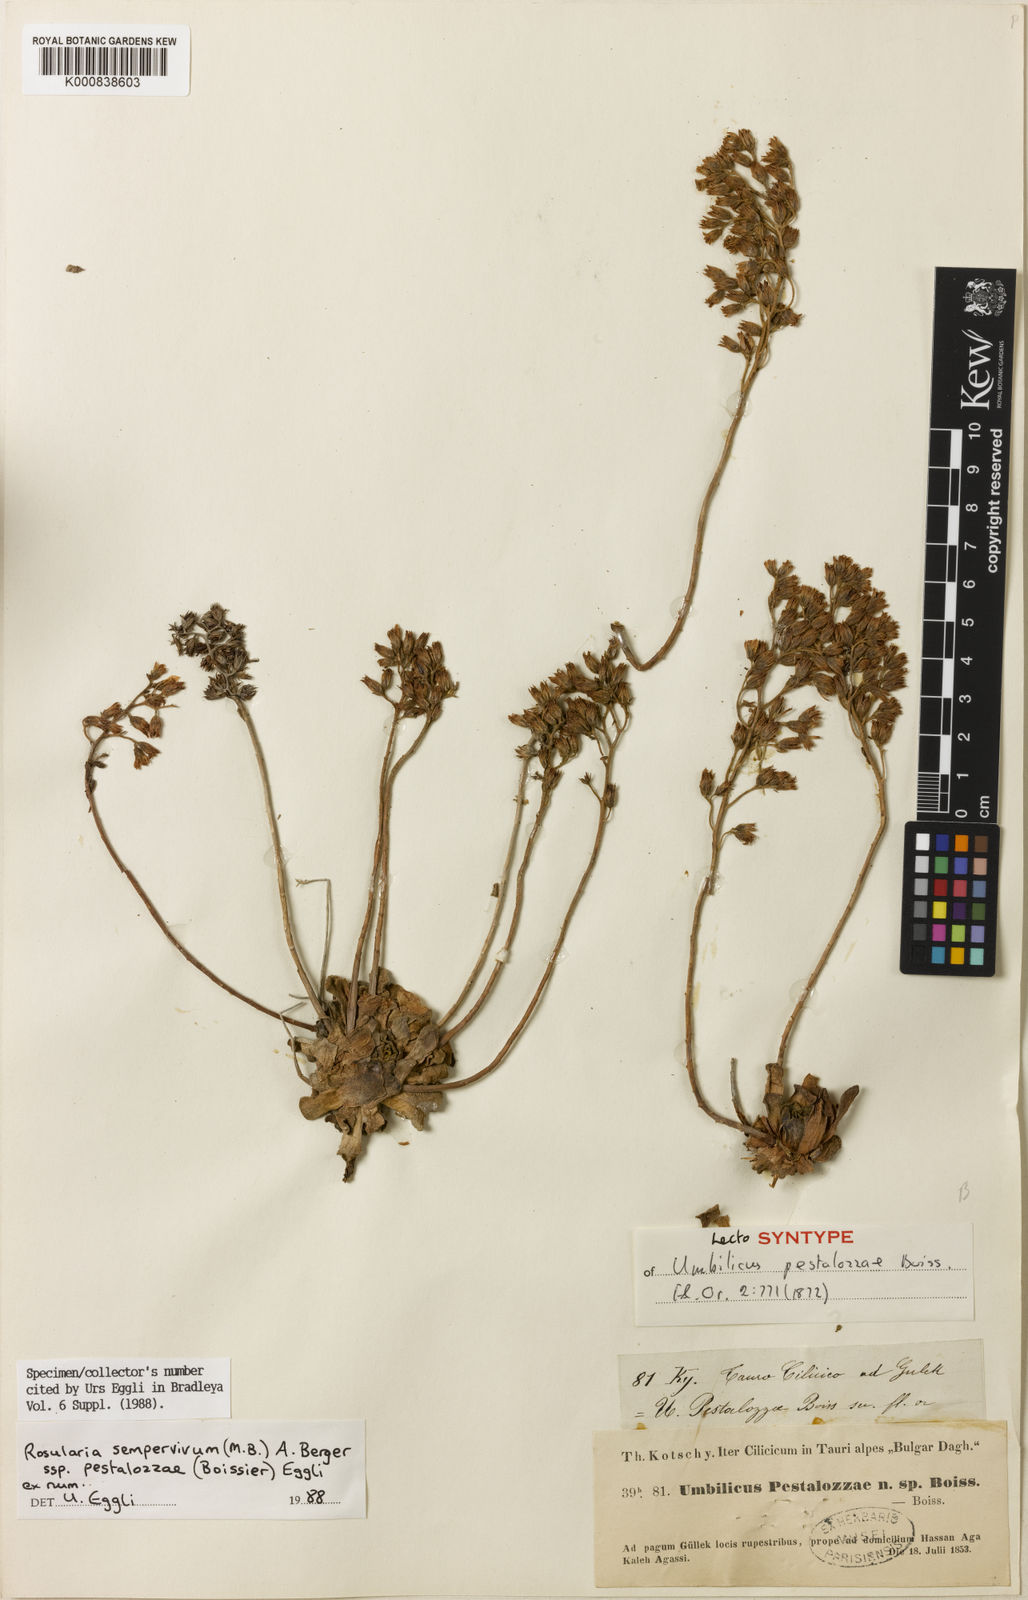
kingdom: Plantae
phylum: Tracheophyta
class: Magnoliopsida
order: Saxifragales
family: Crassulaceae
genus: Rosularia
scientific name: Rosularia sempervivum
